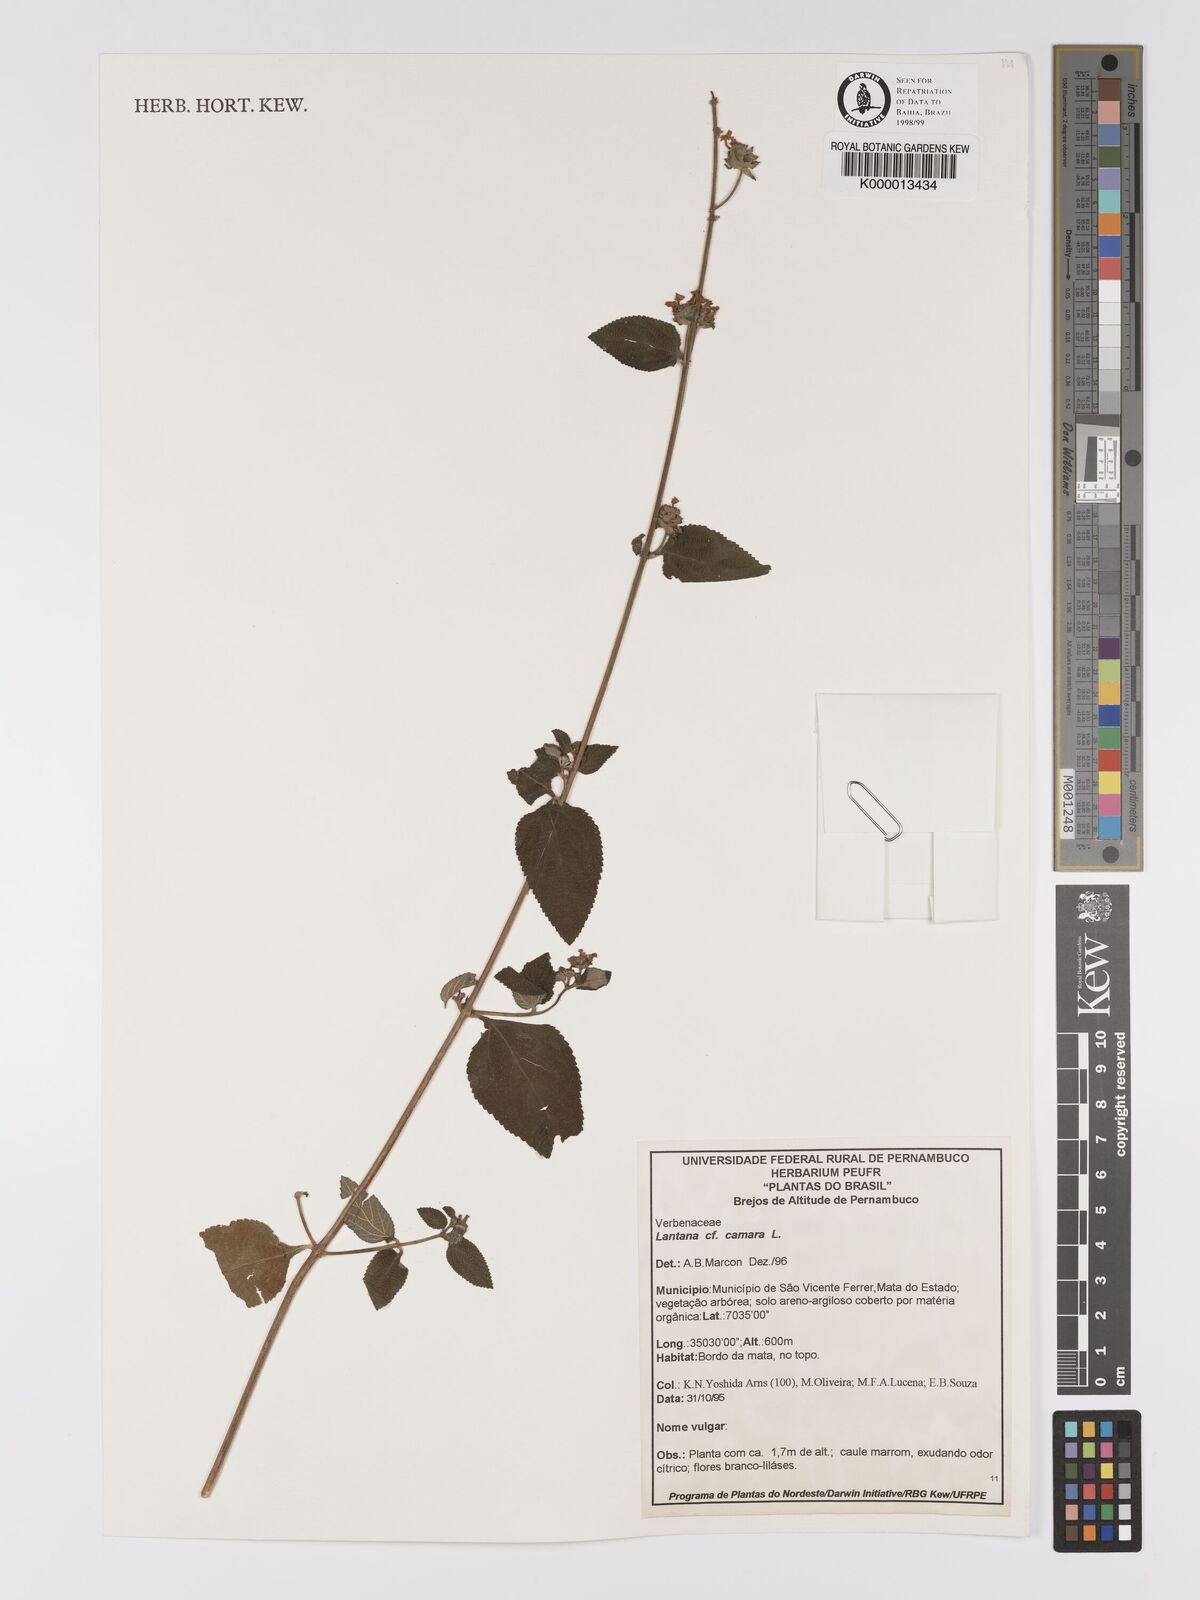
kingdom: Plantae
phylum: Tracheophyta
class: Magnoliopsida
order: Lamiales
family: Verbenaceae
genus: Lantana
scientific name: Lantana camara
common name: Lantana
